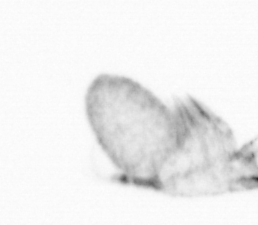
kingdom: Animalia
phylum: Arthropoda
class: Copepoda
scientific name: Copepoda
